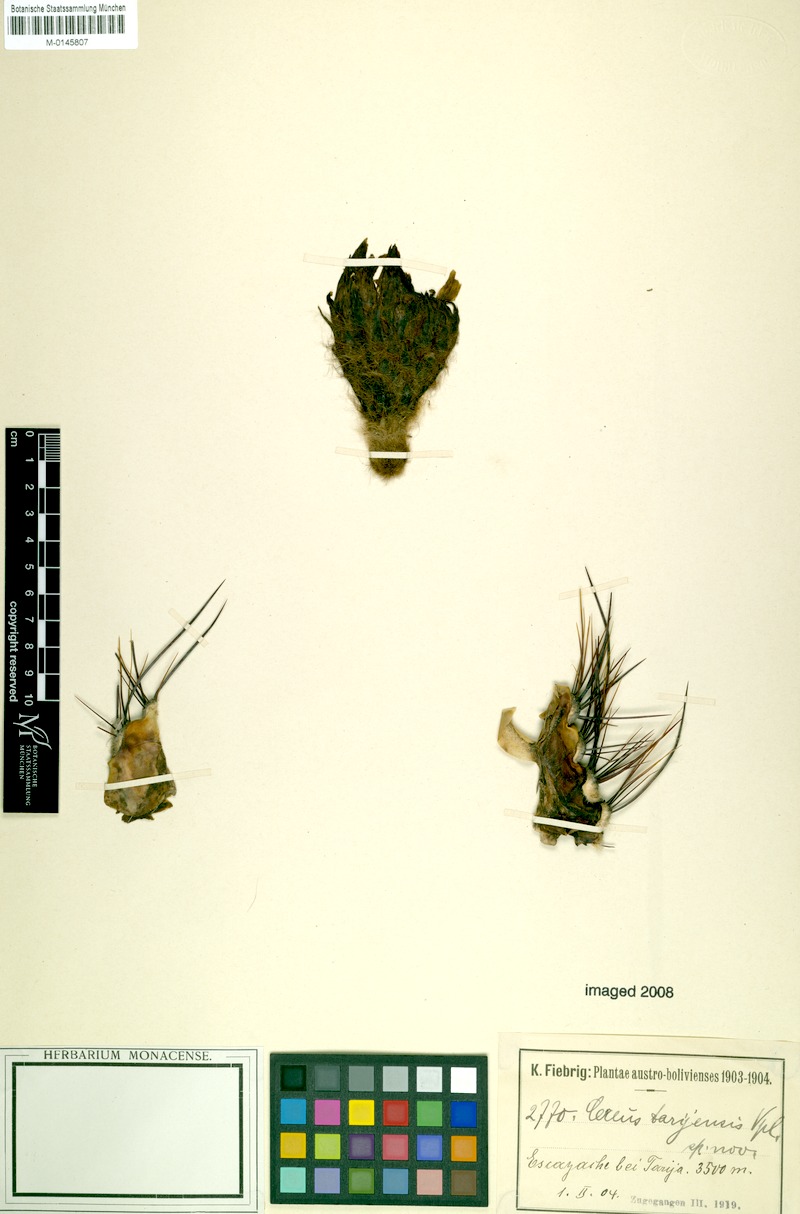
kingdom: Plantae
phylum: Tracheophyta
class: Magnoliopsida
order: Caryophyllales
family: Cactaceae
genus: Soehrensia
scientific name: Soehrensia tarijensis
